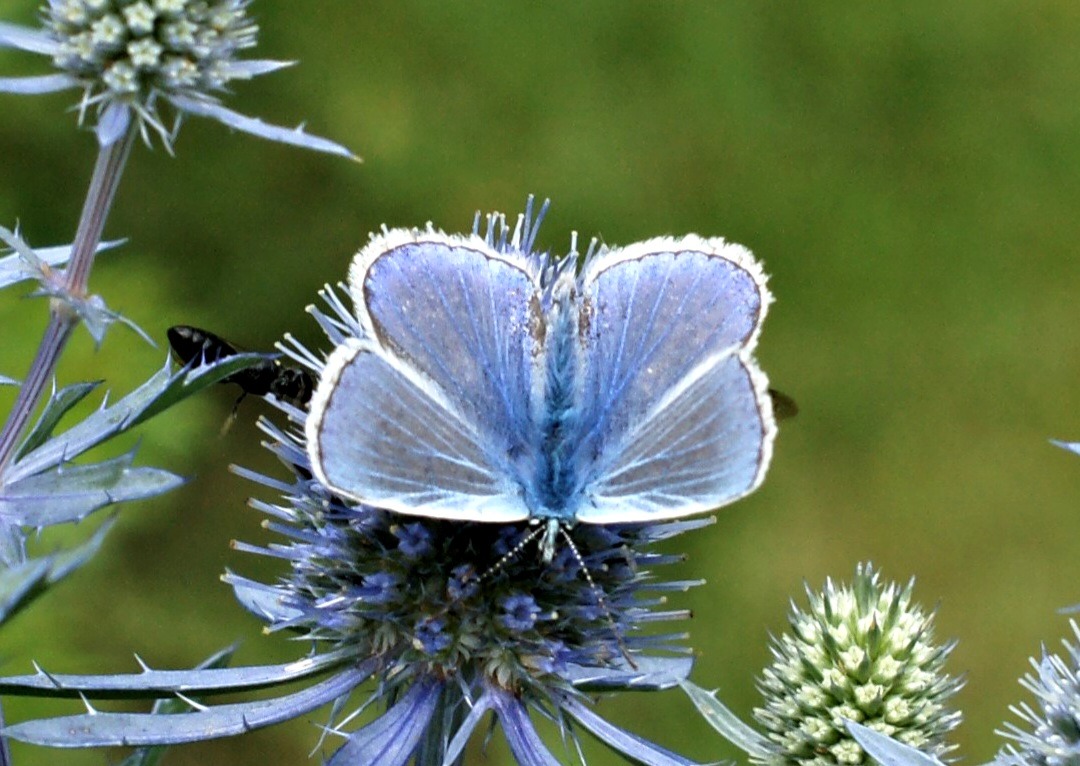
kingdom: Animalia
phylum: Arthropoda
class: Insecta
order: Lepidoptera
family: Lycaenidae
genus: Polyommatus
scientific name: Polyommatus icarus
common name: Almindelig blåfugl
